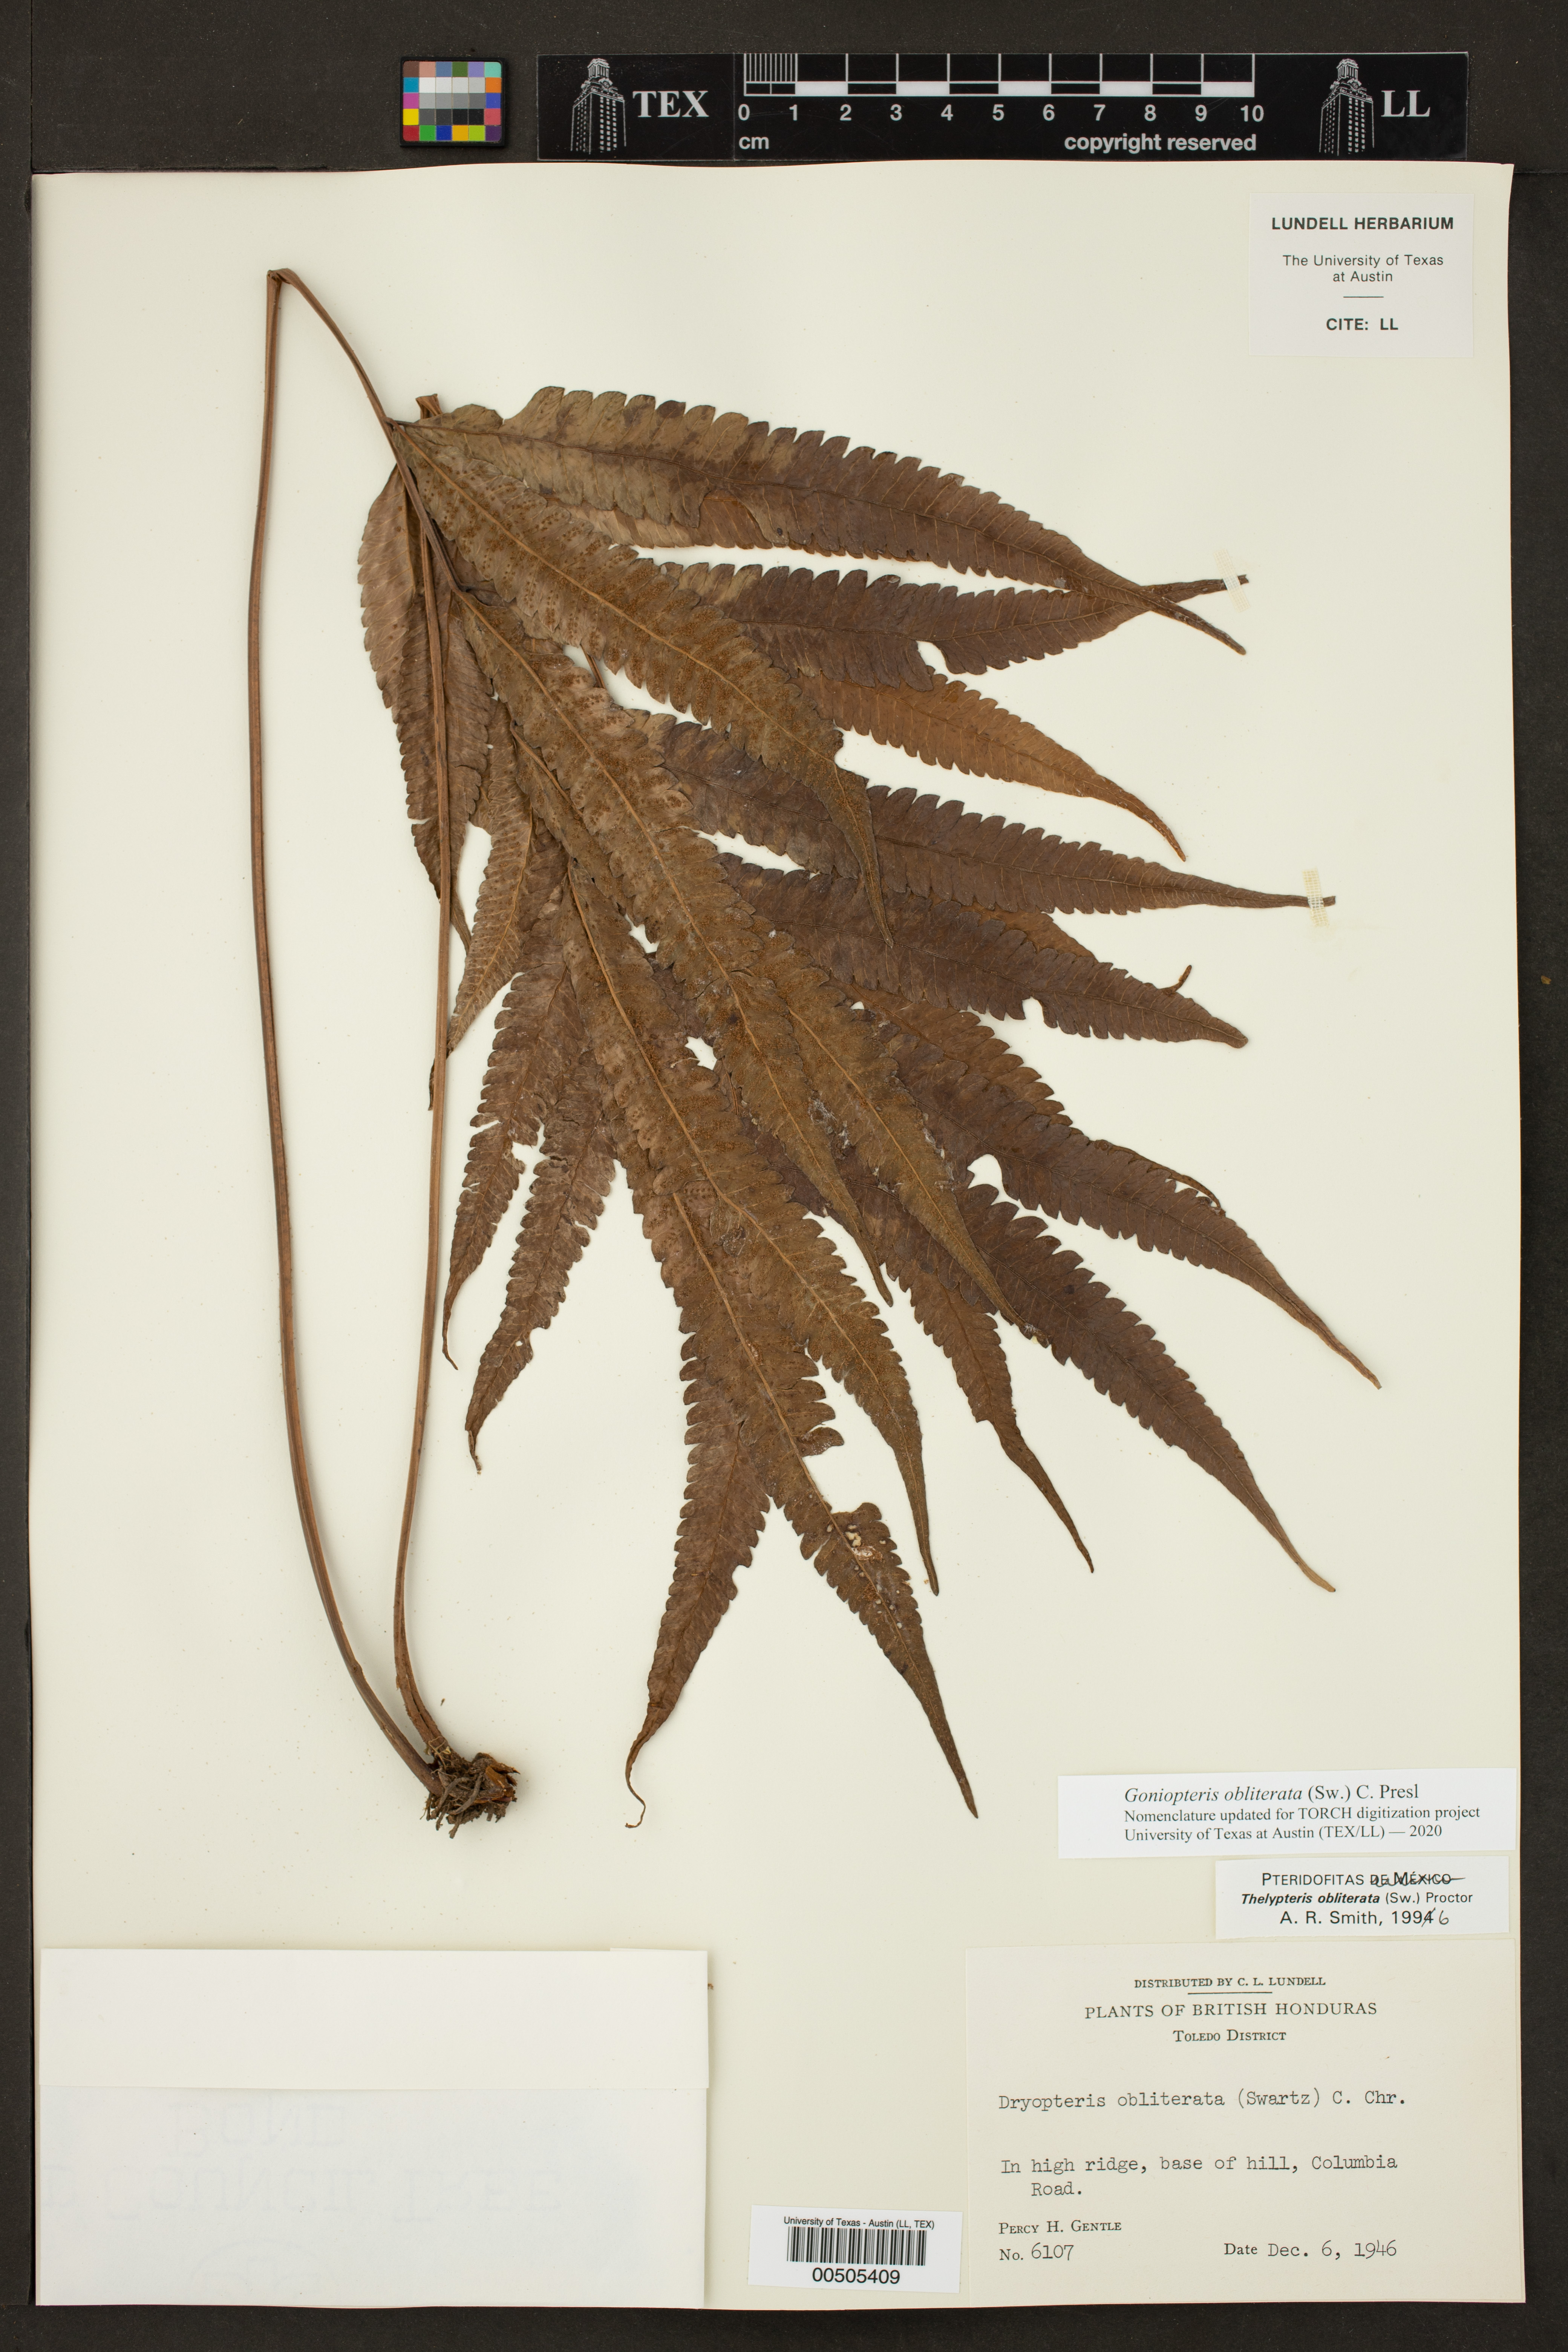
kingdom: Plantae
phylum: Tracheophyta
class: Polypodiopsida
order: Polypodiales
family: Thelypteridaceae
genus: Goniopteris
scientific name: Goniopteris obliterata
